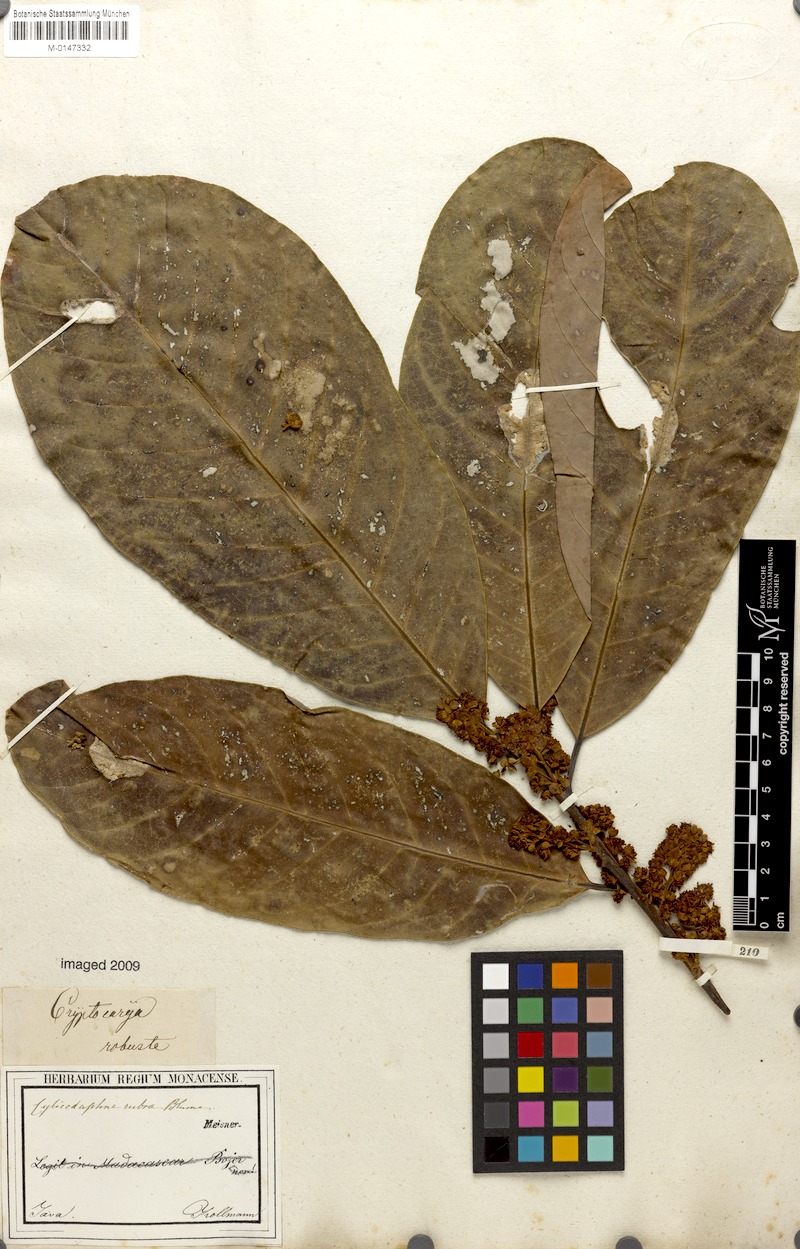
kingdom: Plantae
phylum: Tracheophyta
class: Magnoliopsida
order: Laurales
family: Lauraceae
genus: Litsea
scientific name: Litsea rubra
